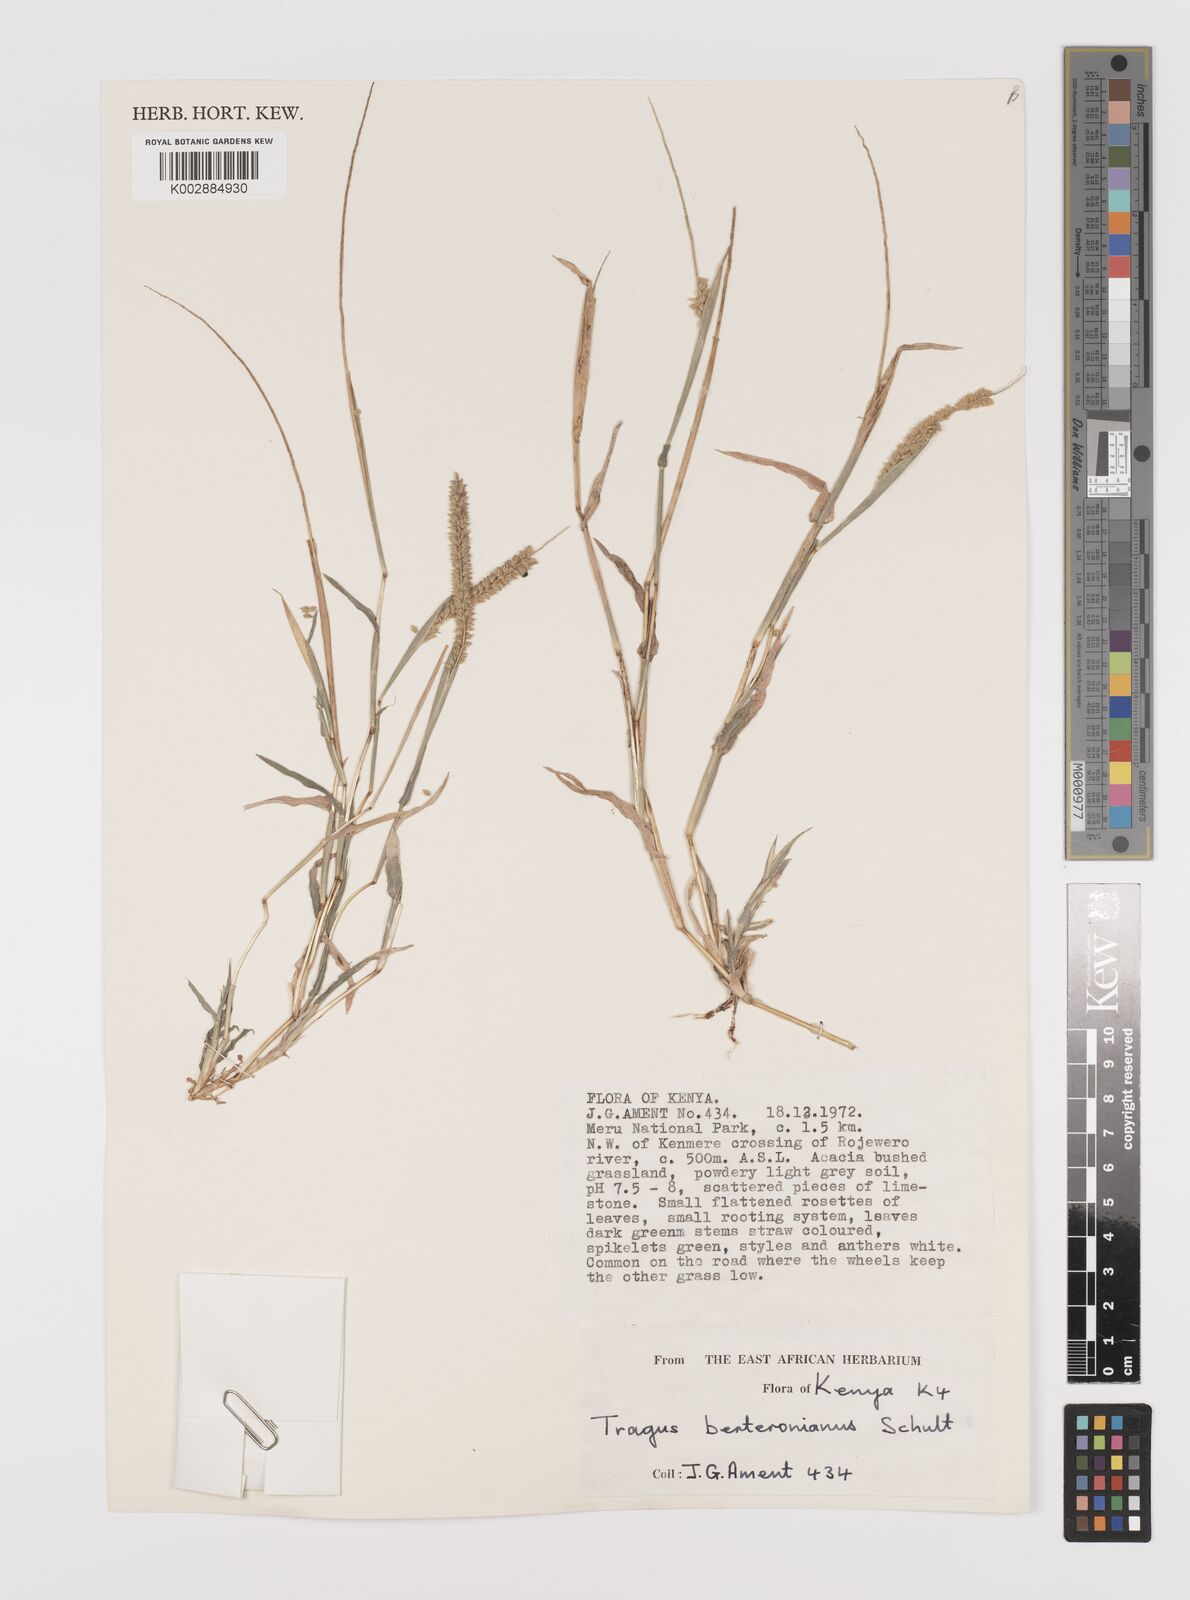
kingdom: Plantae
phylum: Tracheophyta
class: Liliopsida
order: Poales
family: Poaceae
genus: Tragus
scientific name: Tragus berteronianus
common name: African bur-grass
